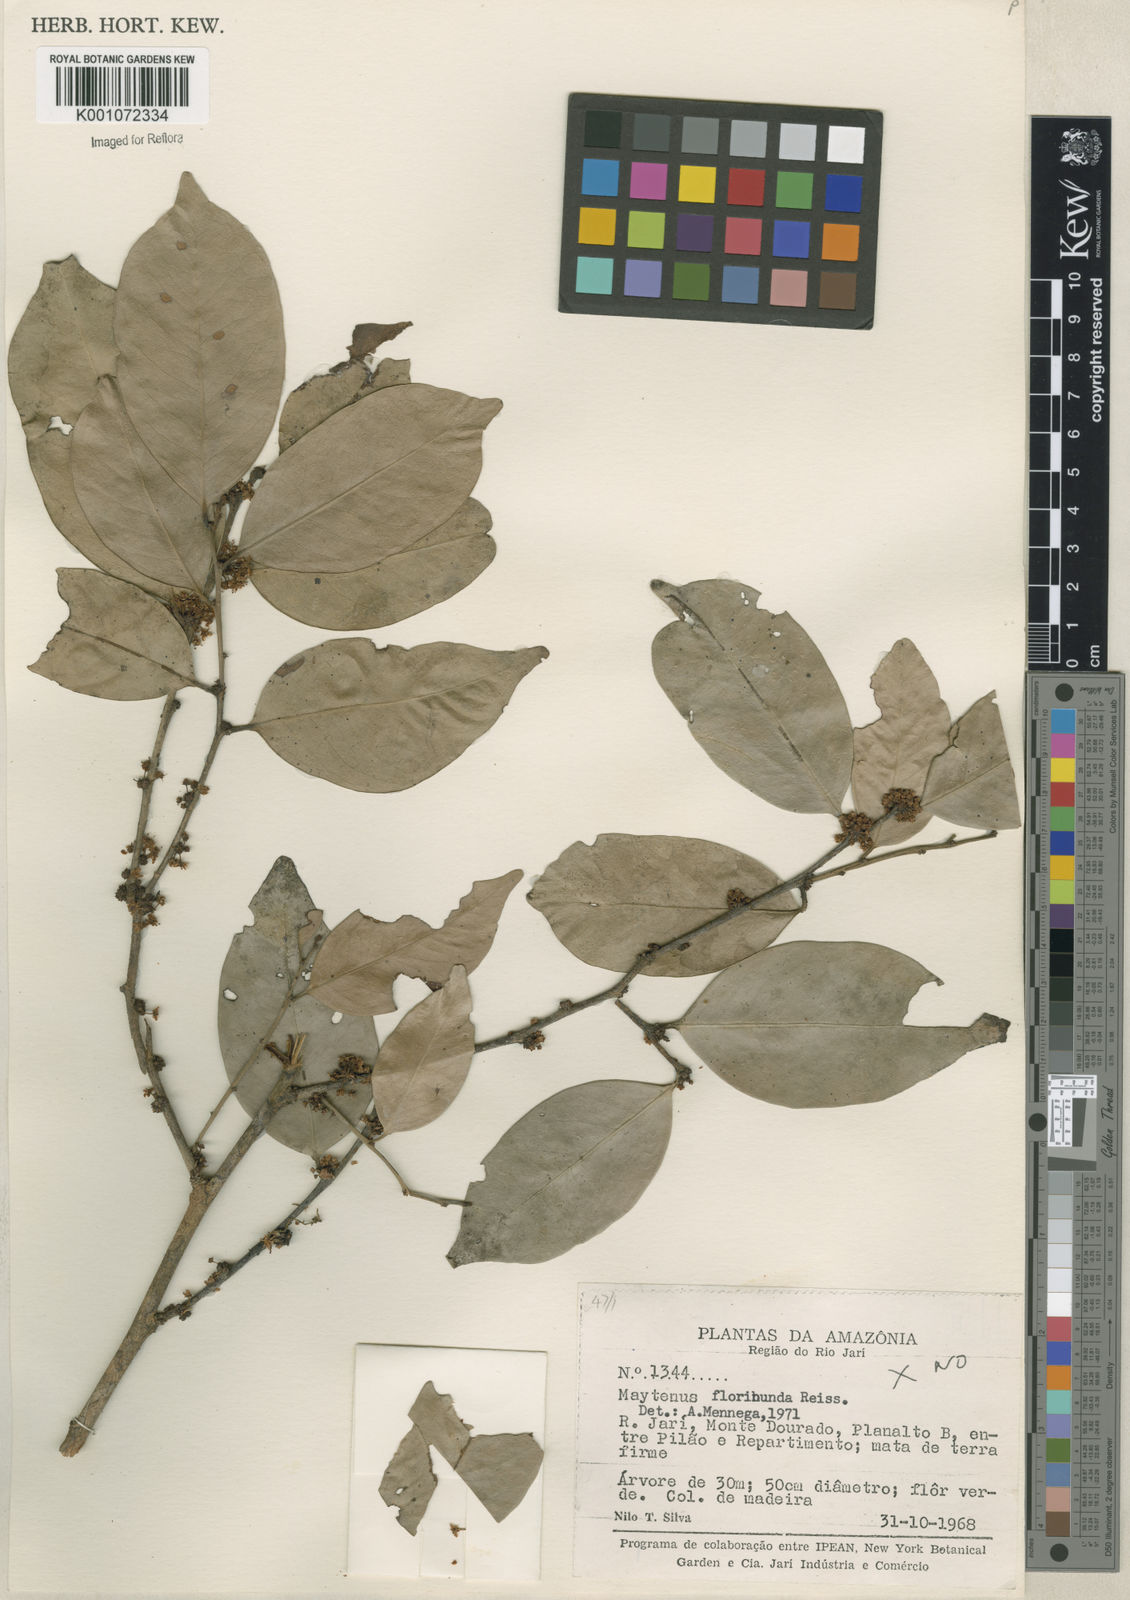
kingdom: Plantae
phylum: Tracheophyta
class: Magnoliopsida
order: Celastrales
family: Celastraceae
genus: Monteverdia
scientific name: Monteverdia floribunda
